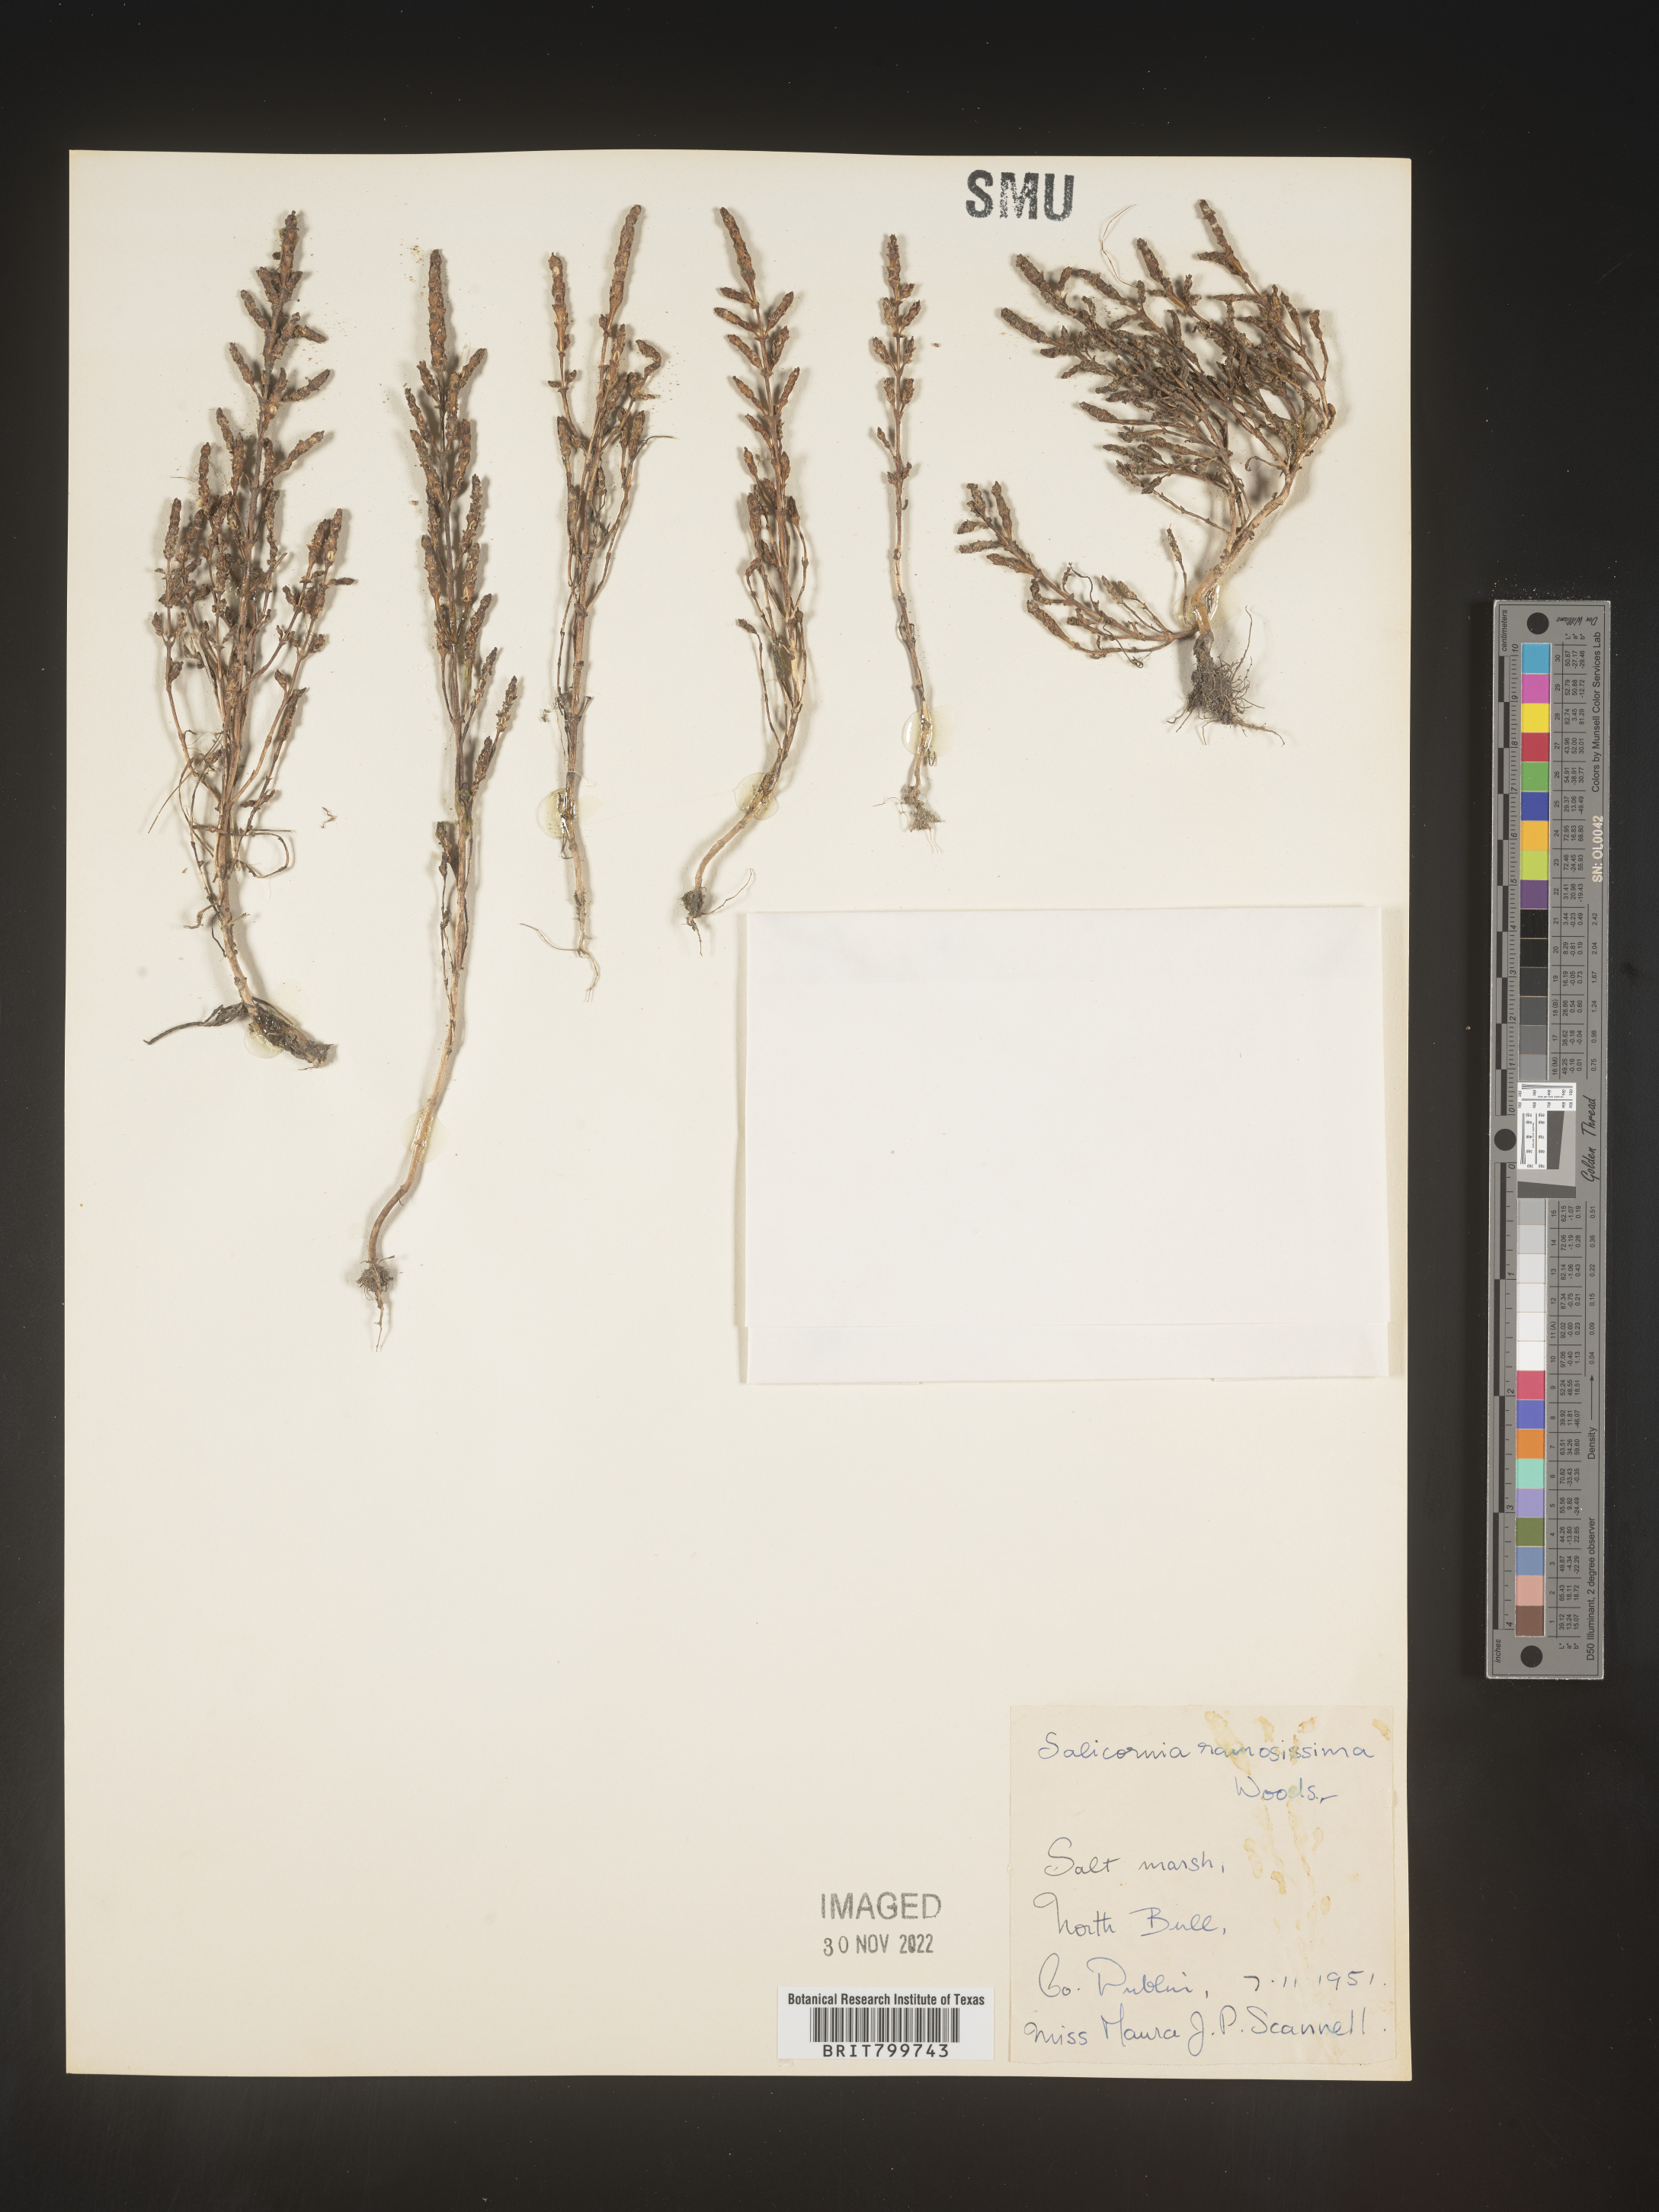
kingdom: Plantae
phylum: Tracheophyta
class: Magnoliopsida
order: Caryophyllales
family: Amaranthaceae
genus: Salicornia
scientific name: Salicornia
